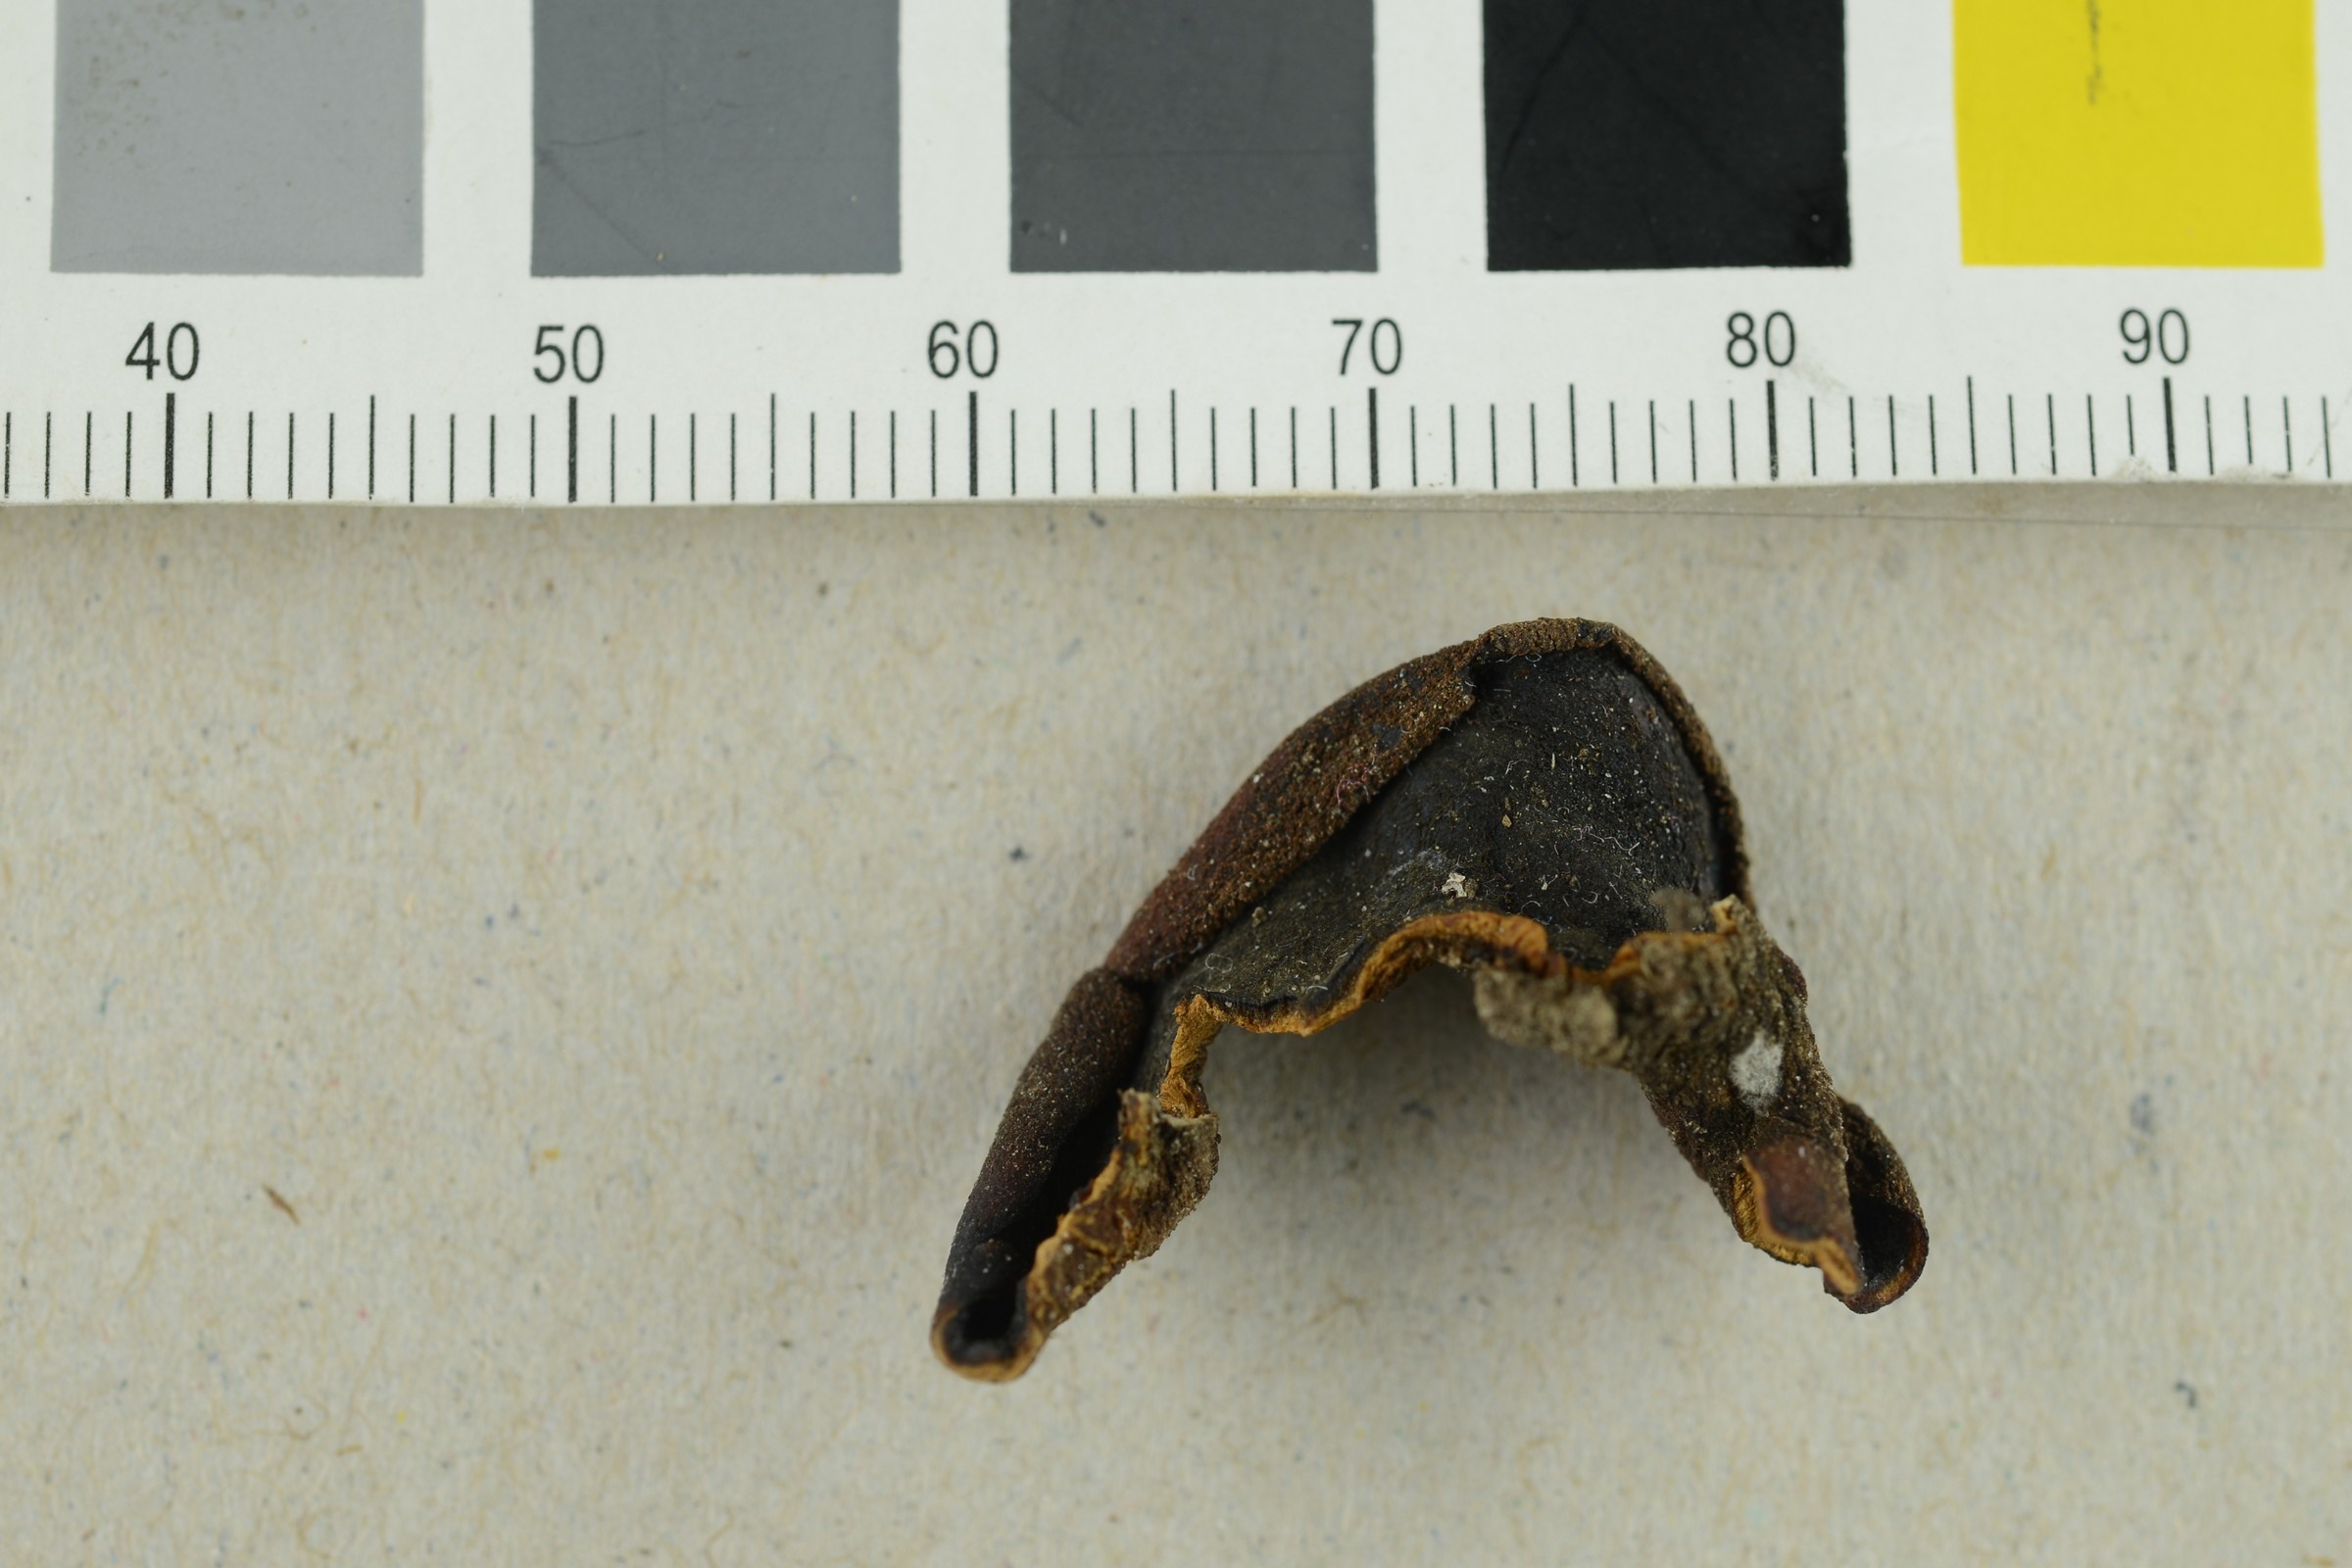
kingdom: Fungi
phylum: Ascomycota
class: Pezizomycetes
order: Pezizales
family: Pezizaceae
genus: Peziza
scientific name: Peziza
